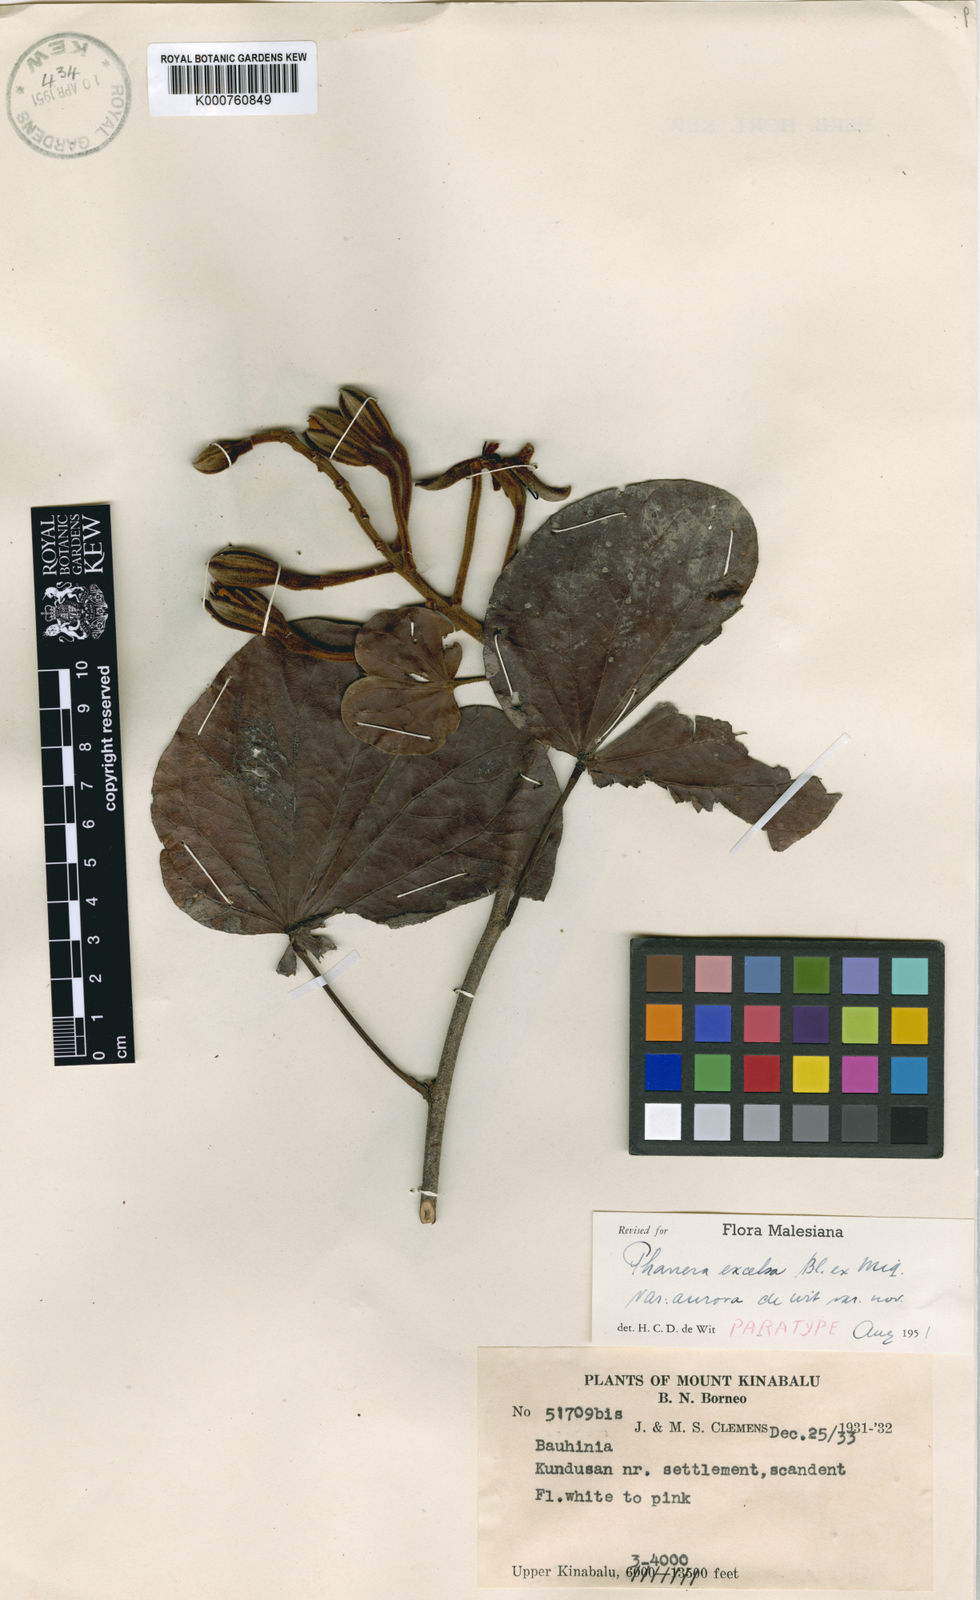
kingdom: Plantae
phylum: Tracheophyta
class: Magnoliopsida
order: Fabales
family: Fabaceae
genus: Phanera
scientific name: Phanera excelsa
